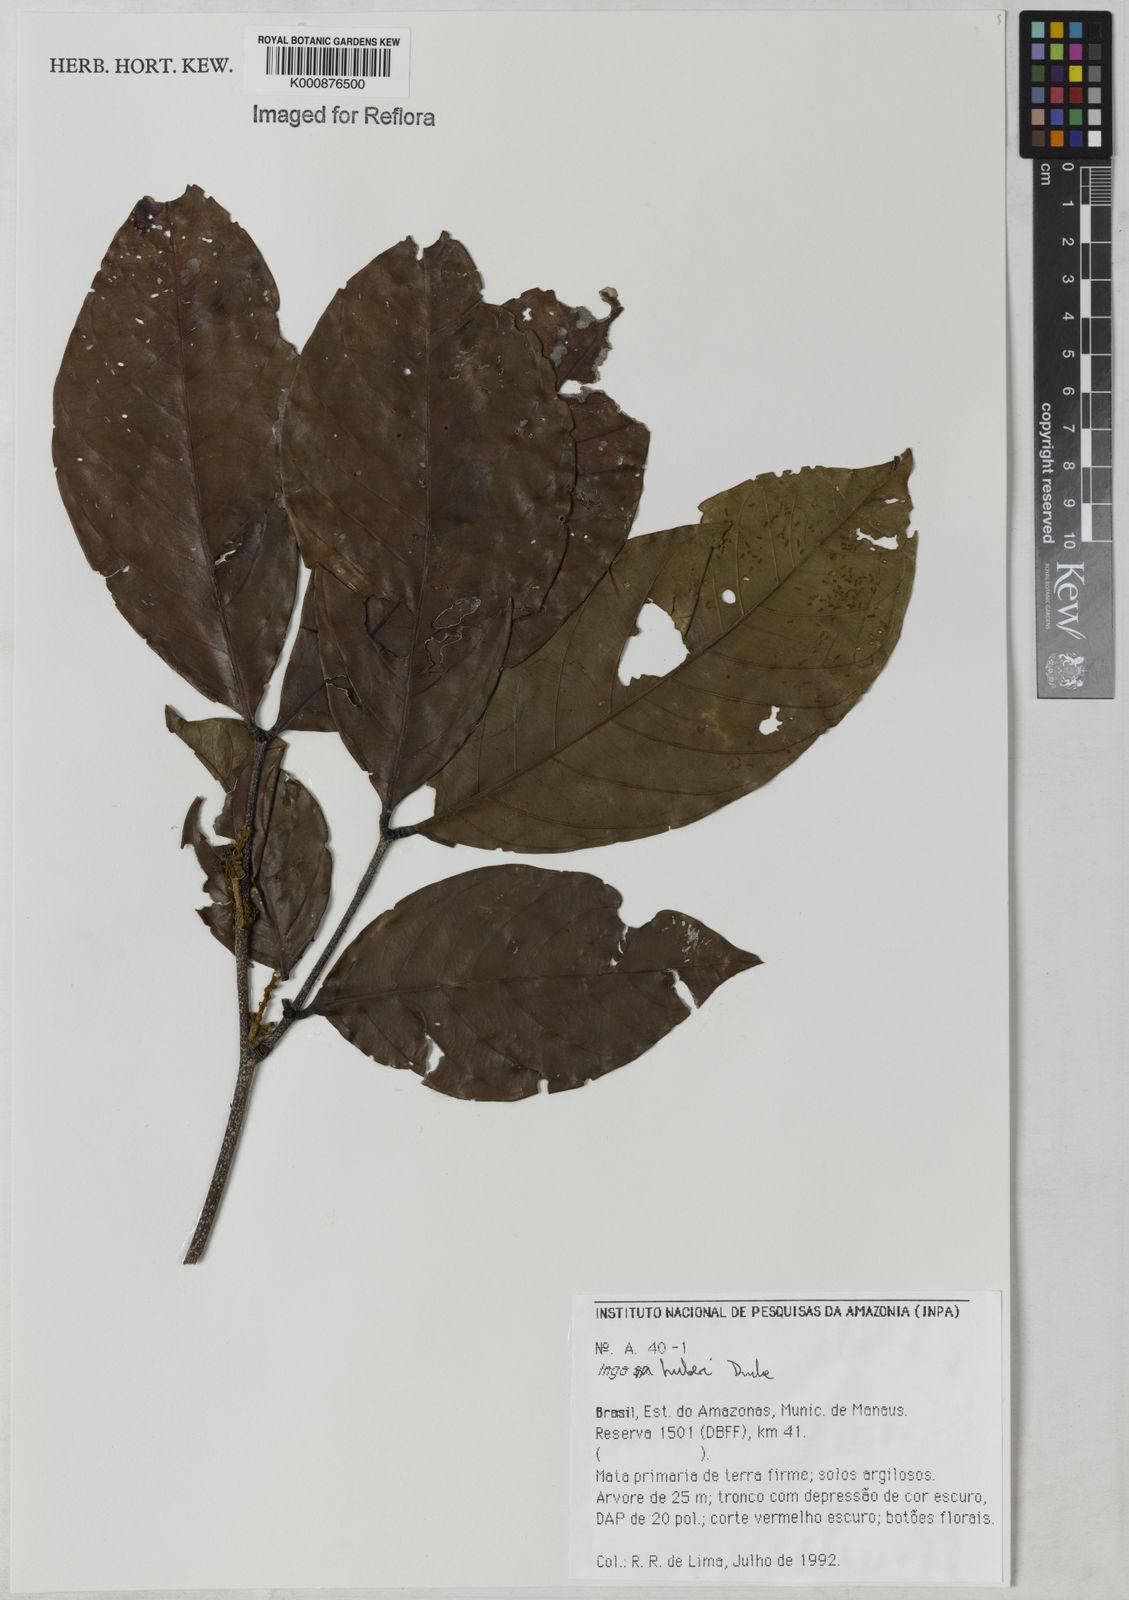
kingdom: Plantae
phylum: Tracheophyta
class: Magnoliopsida
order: Fabales
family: Fabaceae
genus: Inga
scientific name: Inga huberi
